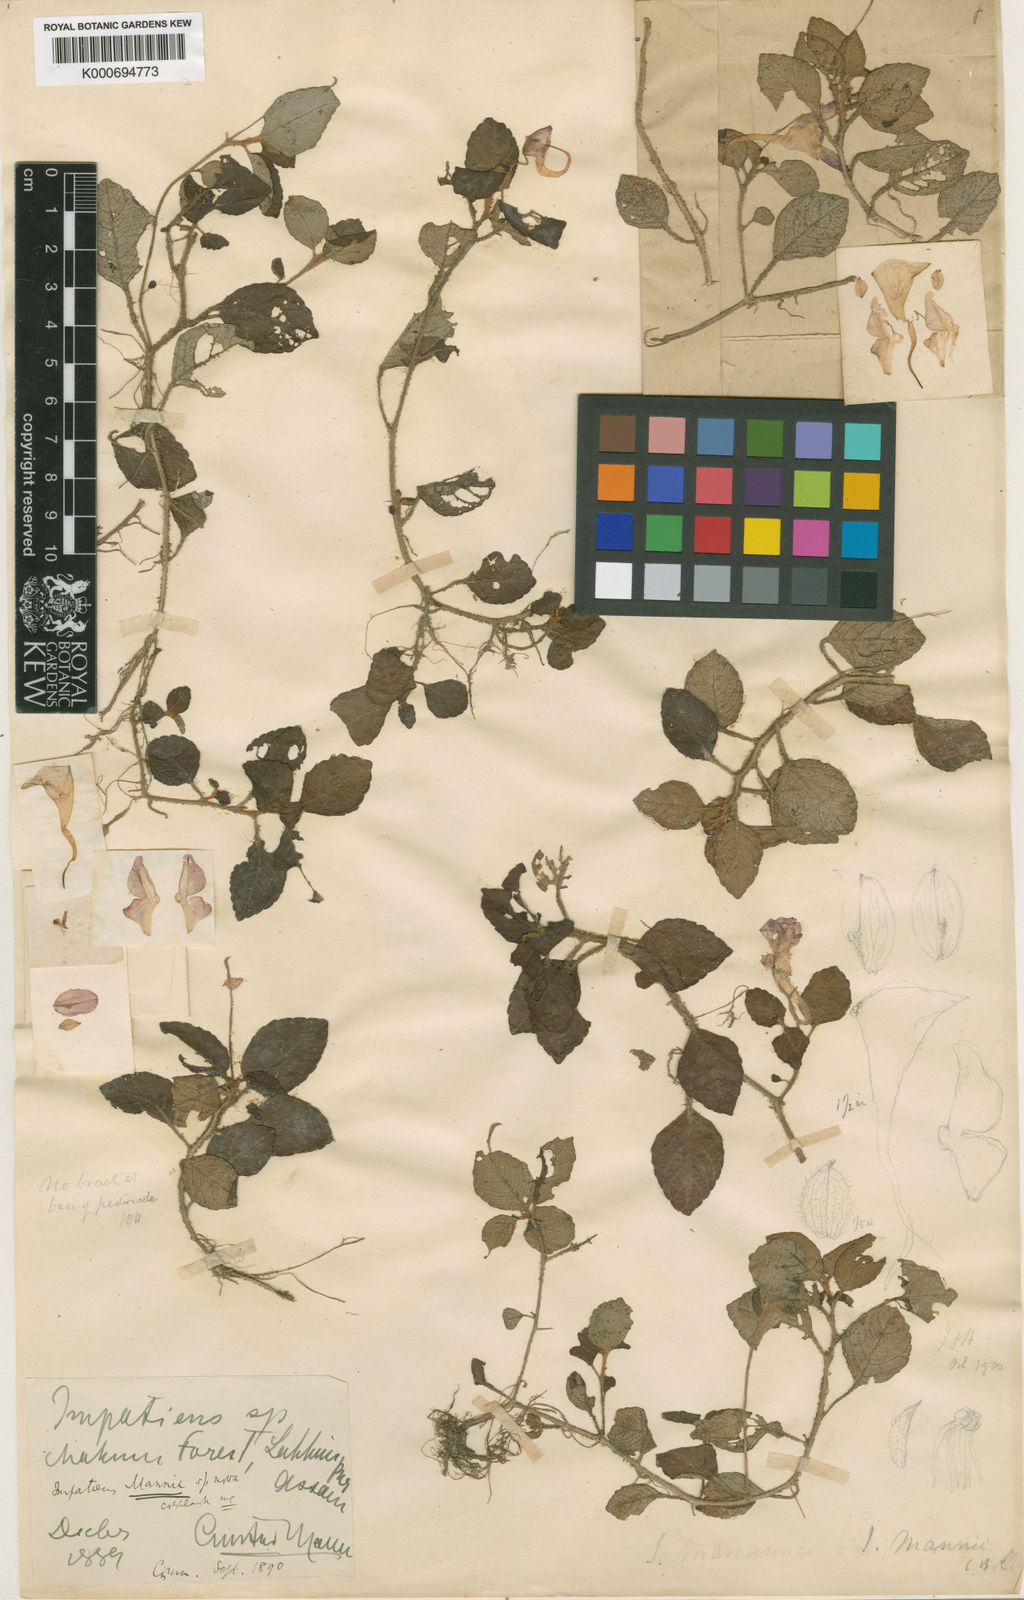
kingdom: Plantae
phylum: Tracheophyta
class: Magnoliopsida
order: Ericales
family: Balsaminaceae
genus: Impatiens
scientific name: Impatiens pulchra
